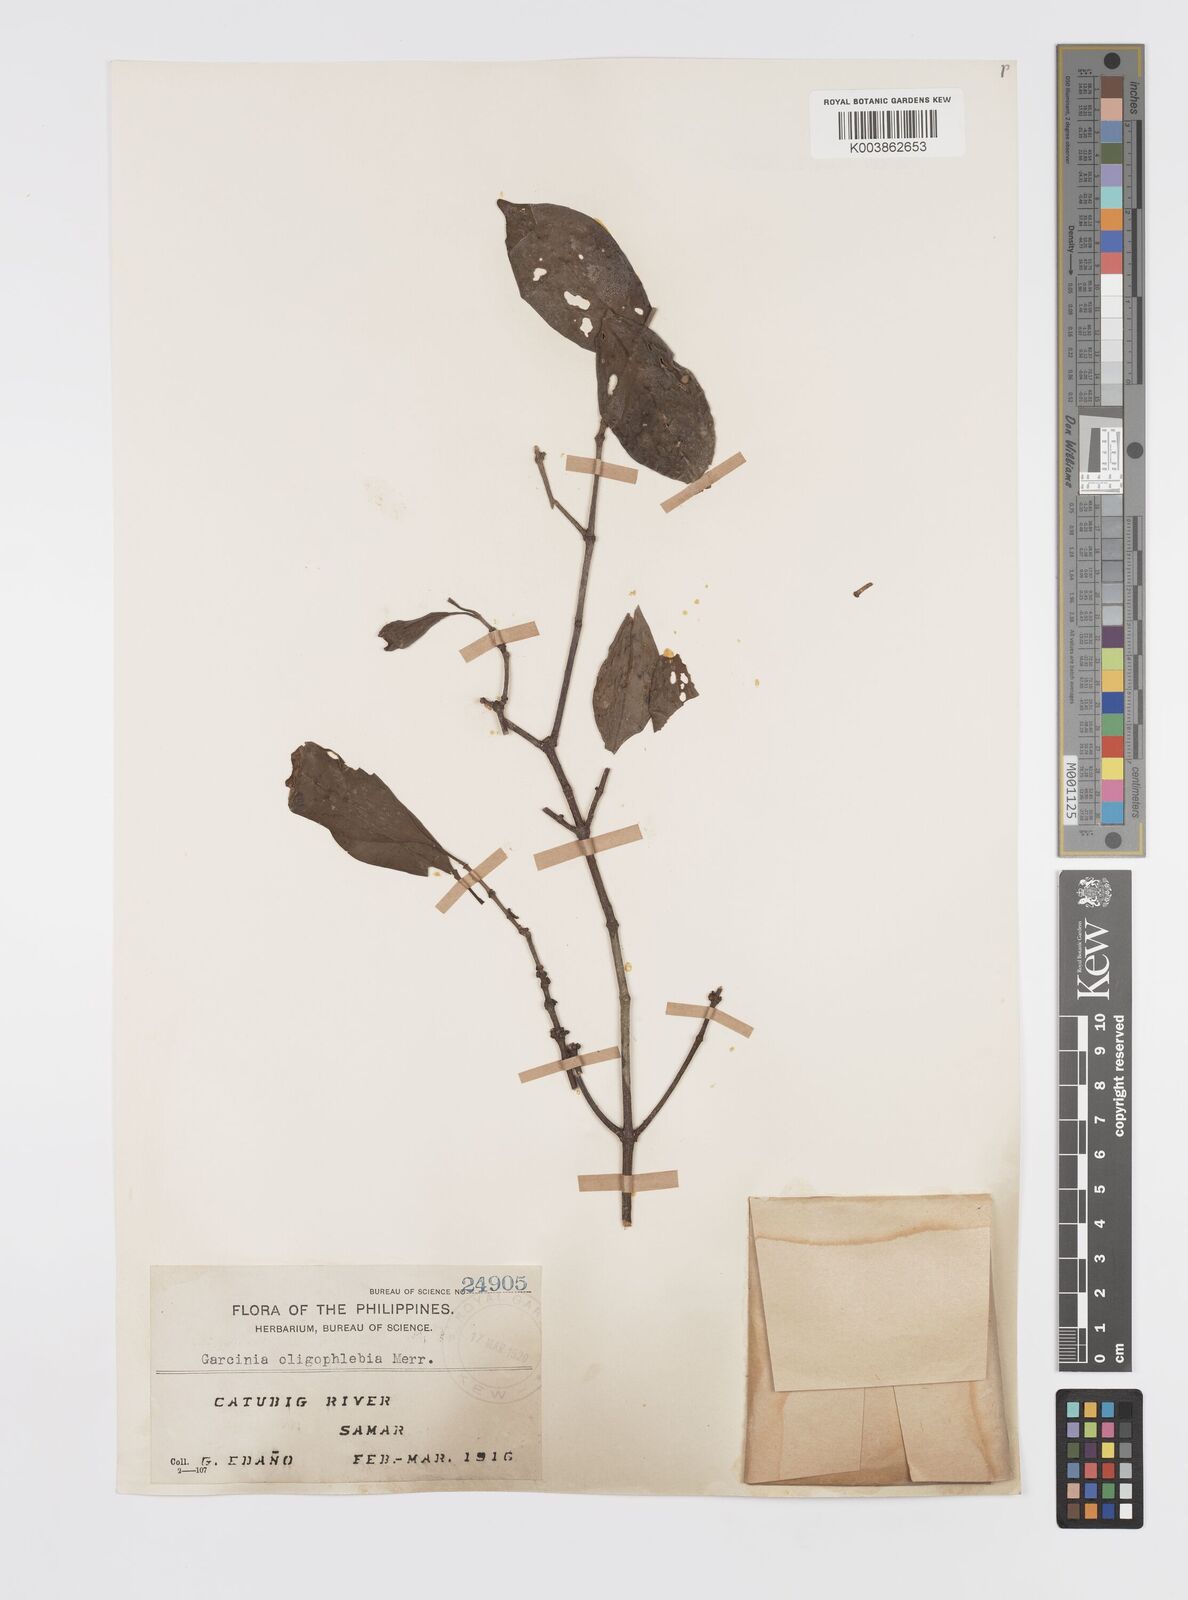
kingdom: Plantae
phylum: Tracheophyta
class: Magnoliopsida
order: Malpighiales
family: Clusiaceae
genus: Garcinia
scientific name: Garcinia rubra
